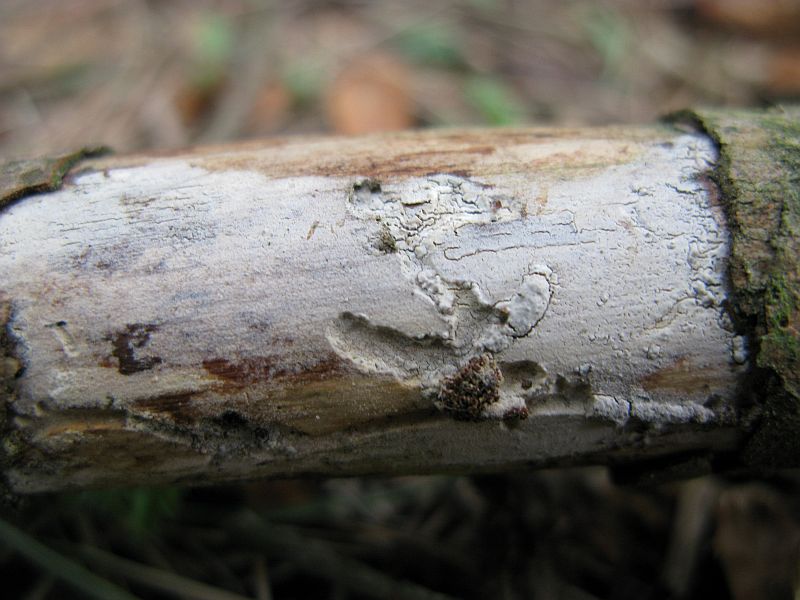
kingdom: Fungi
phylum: Basidiomycota
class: Agaricomycetes
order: Hymenochaetales
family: Rickenellaceae
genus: Peniophorella
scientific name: Peniophorella praetermissa
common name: almindelig kalkskind
